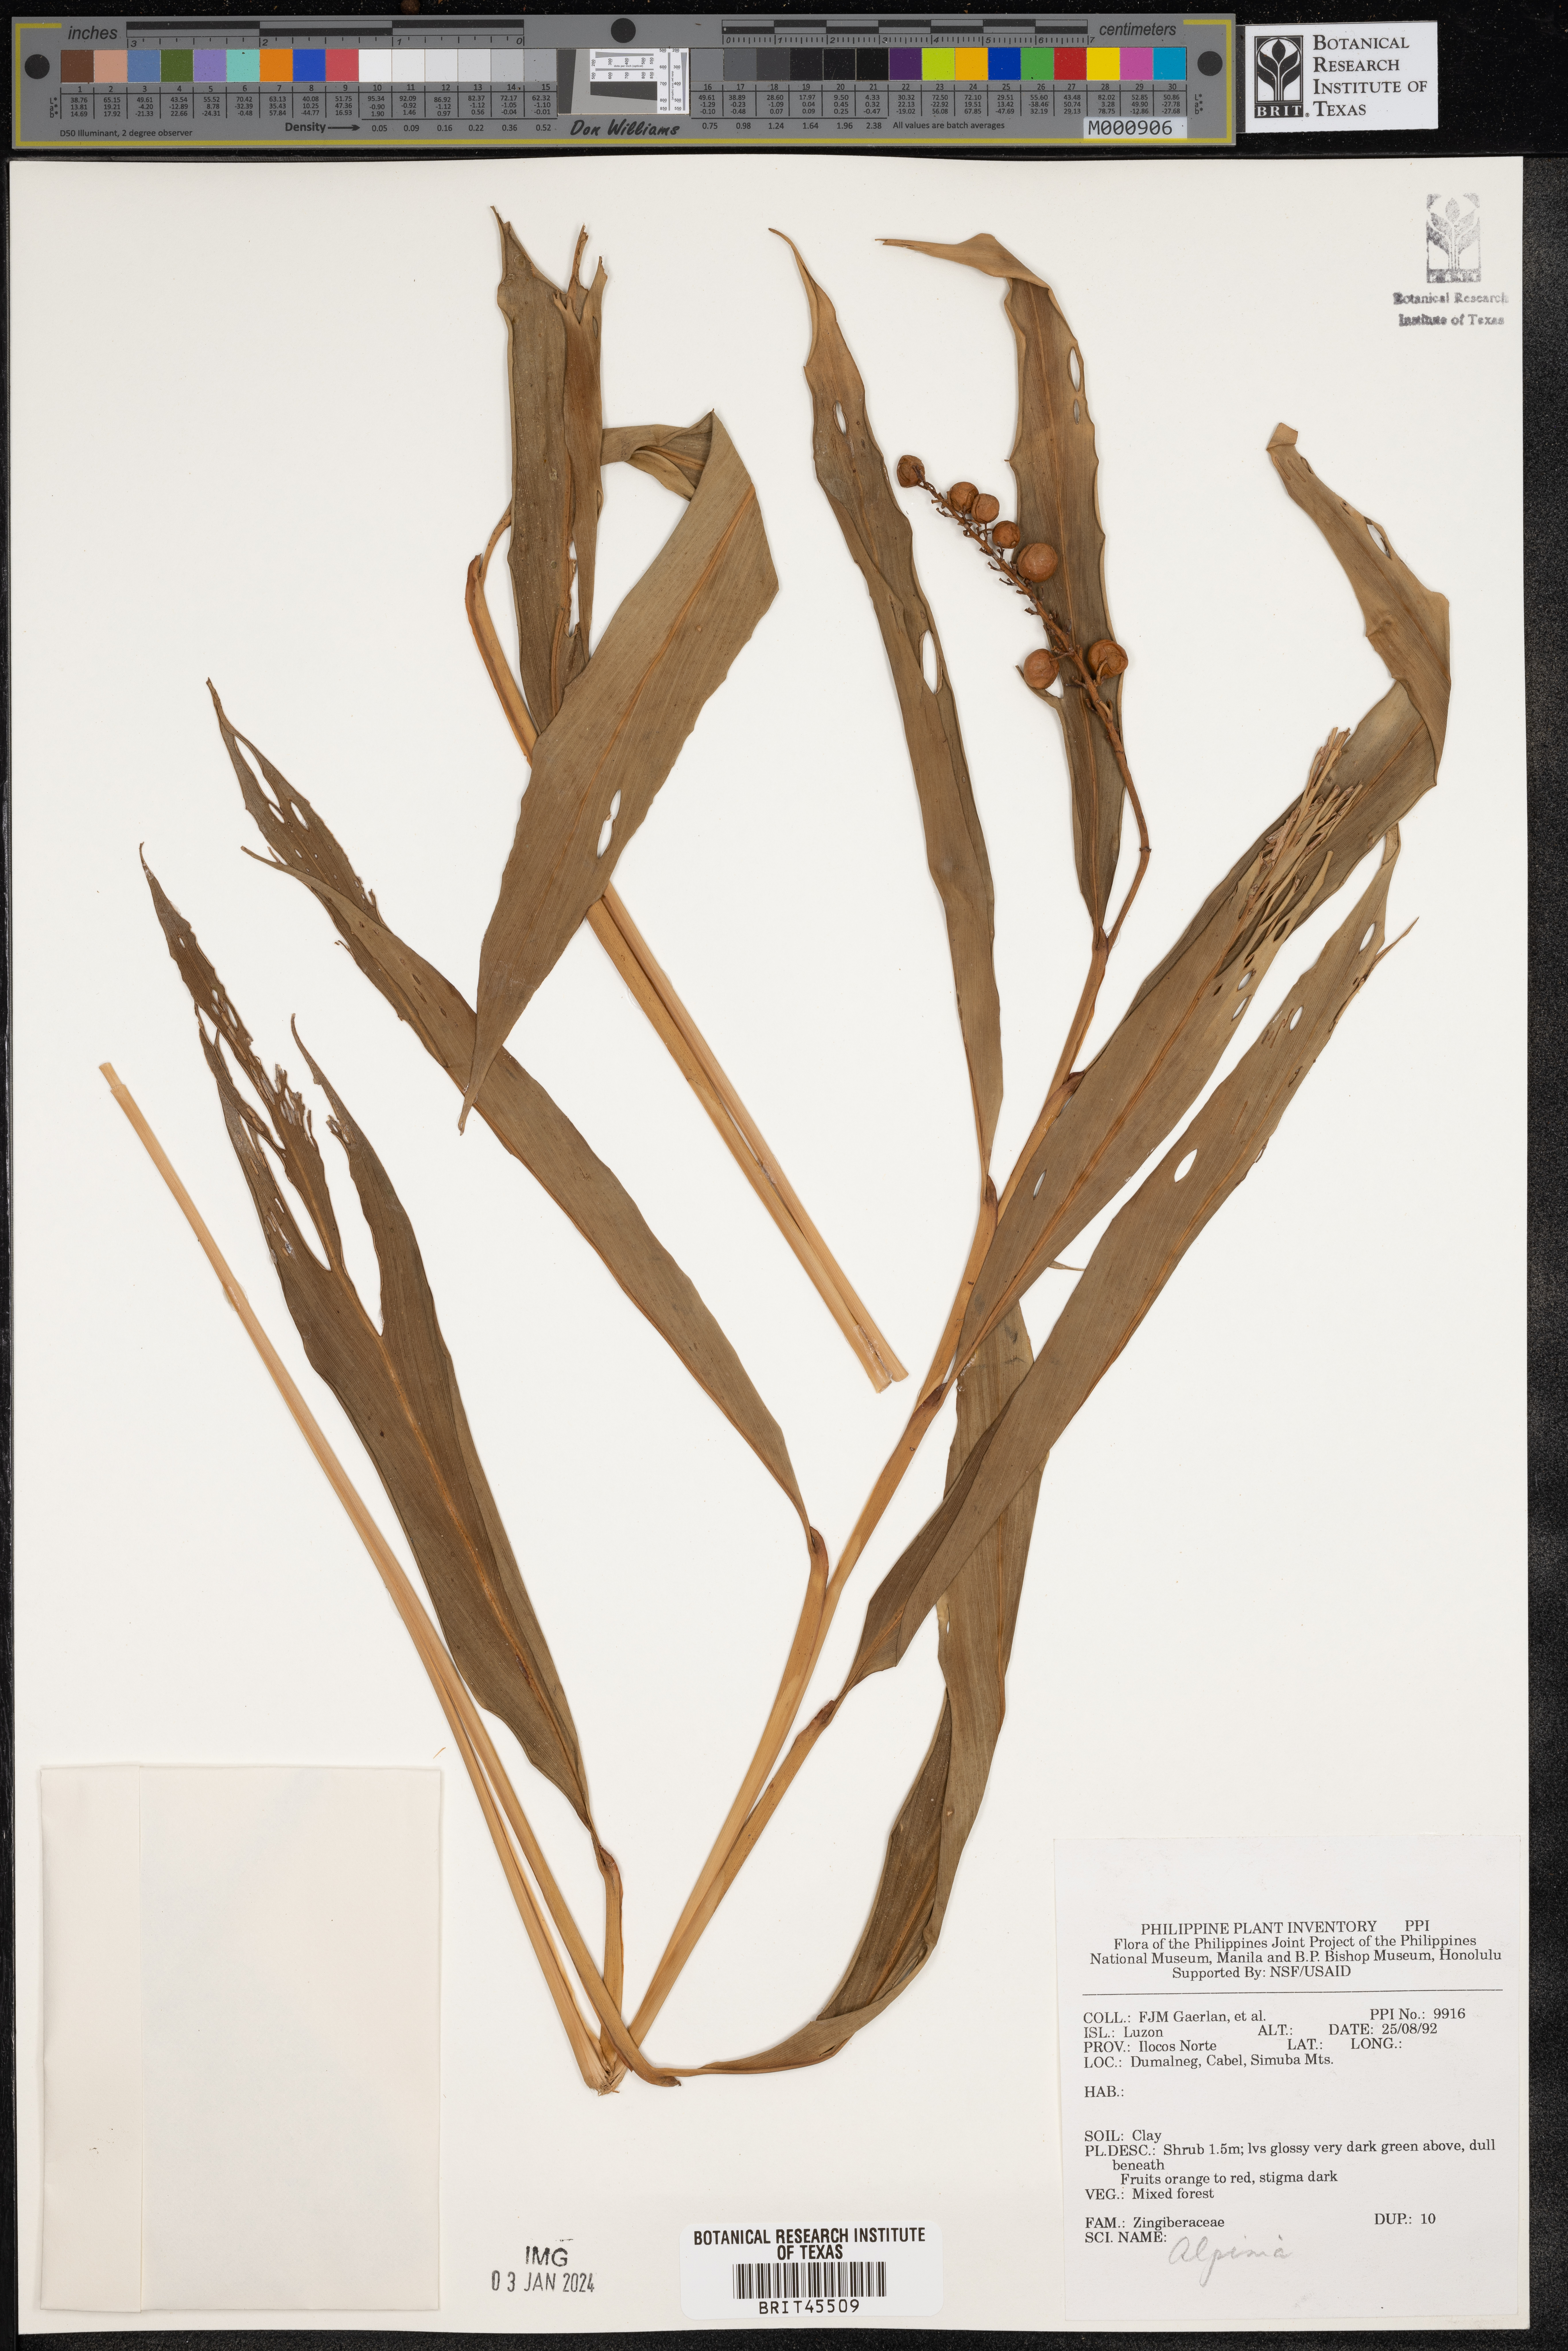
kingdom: Plantae
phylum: Tracheophyta
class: Liliopsida
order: Zingiberales
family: Zingiberaceae
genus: Alpinia
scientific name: Alpinia
